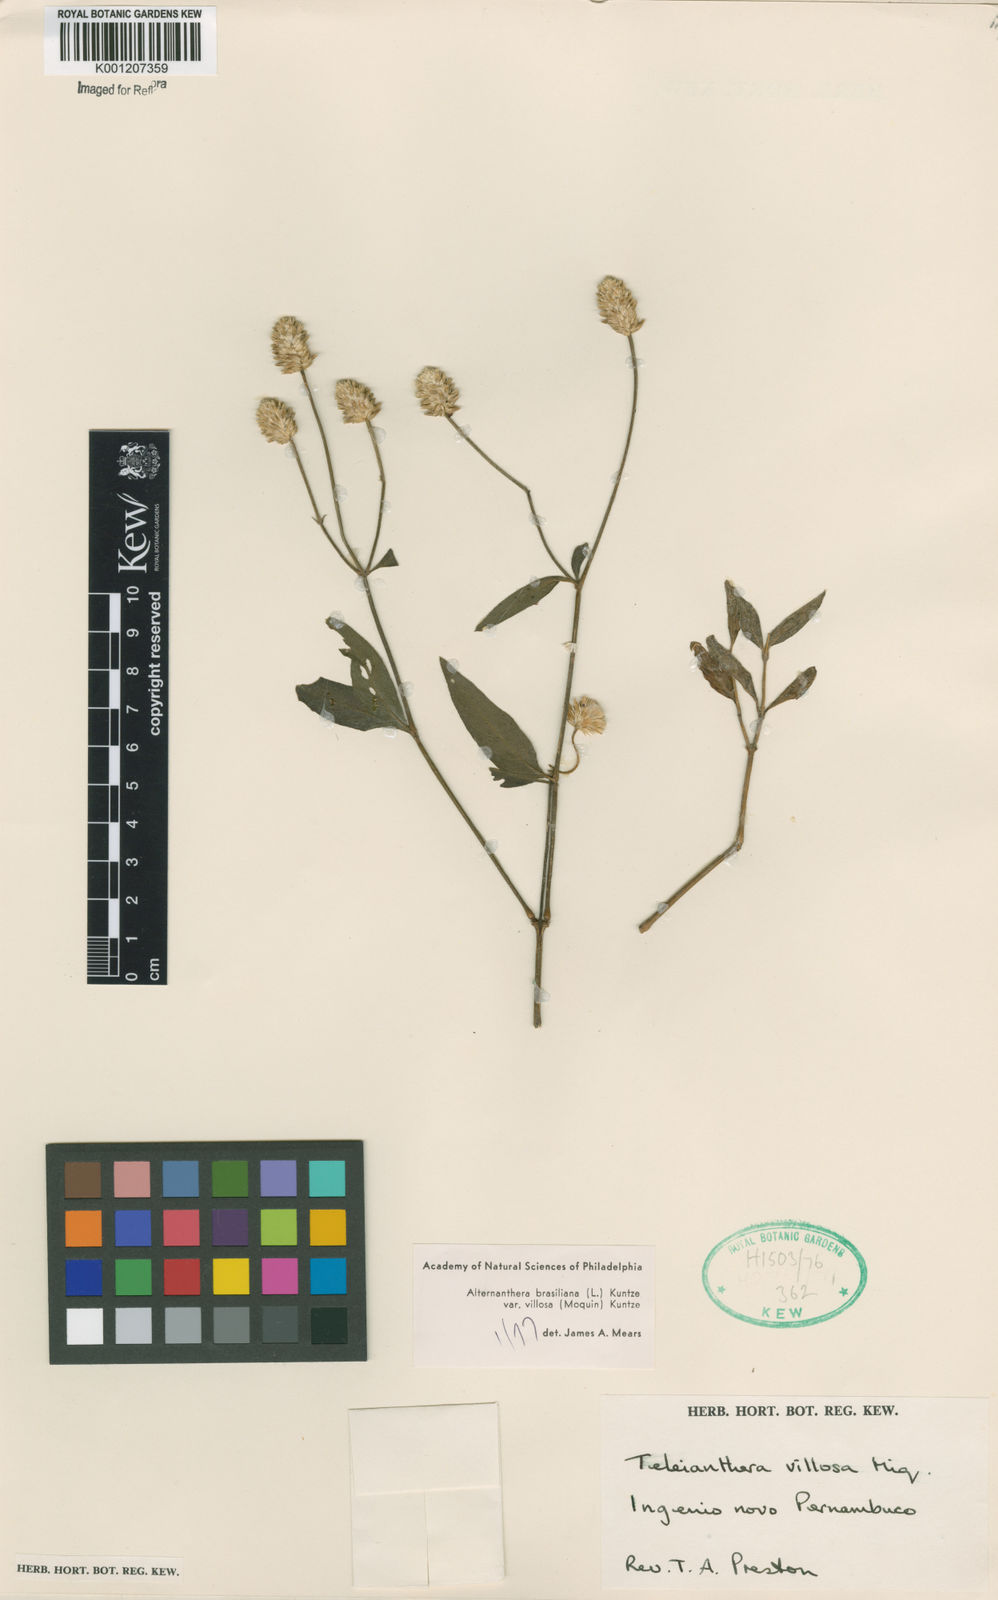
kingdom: Plantae
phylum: Tracheophyta
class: Magnoliopsida
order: Caryophyllales
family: Amaranthaceae
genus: Alternanthera
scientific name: Alternanthera brasiliana
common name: Brazilian joyweed
